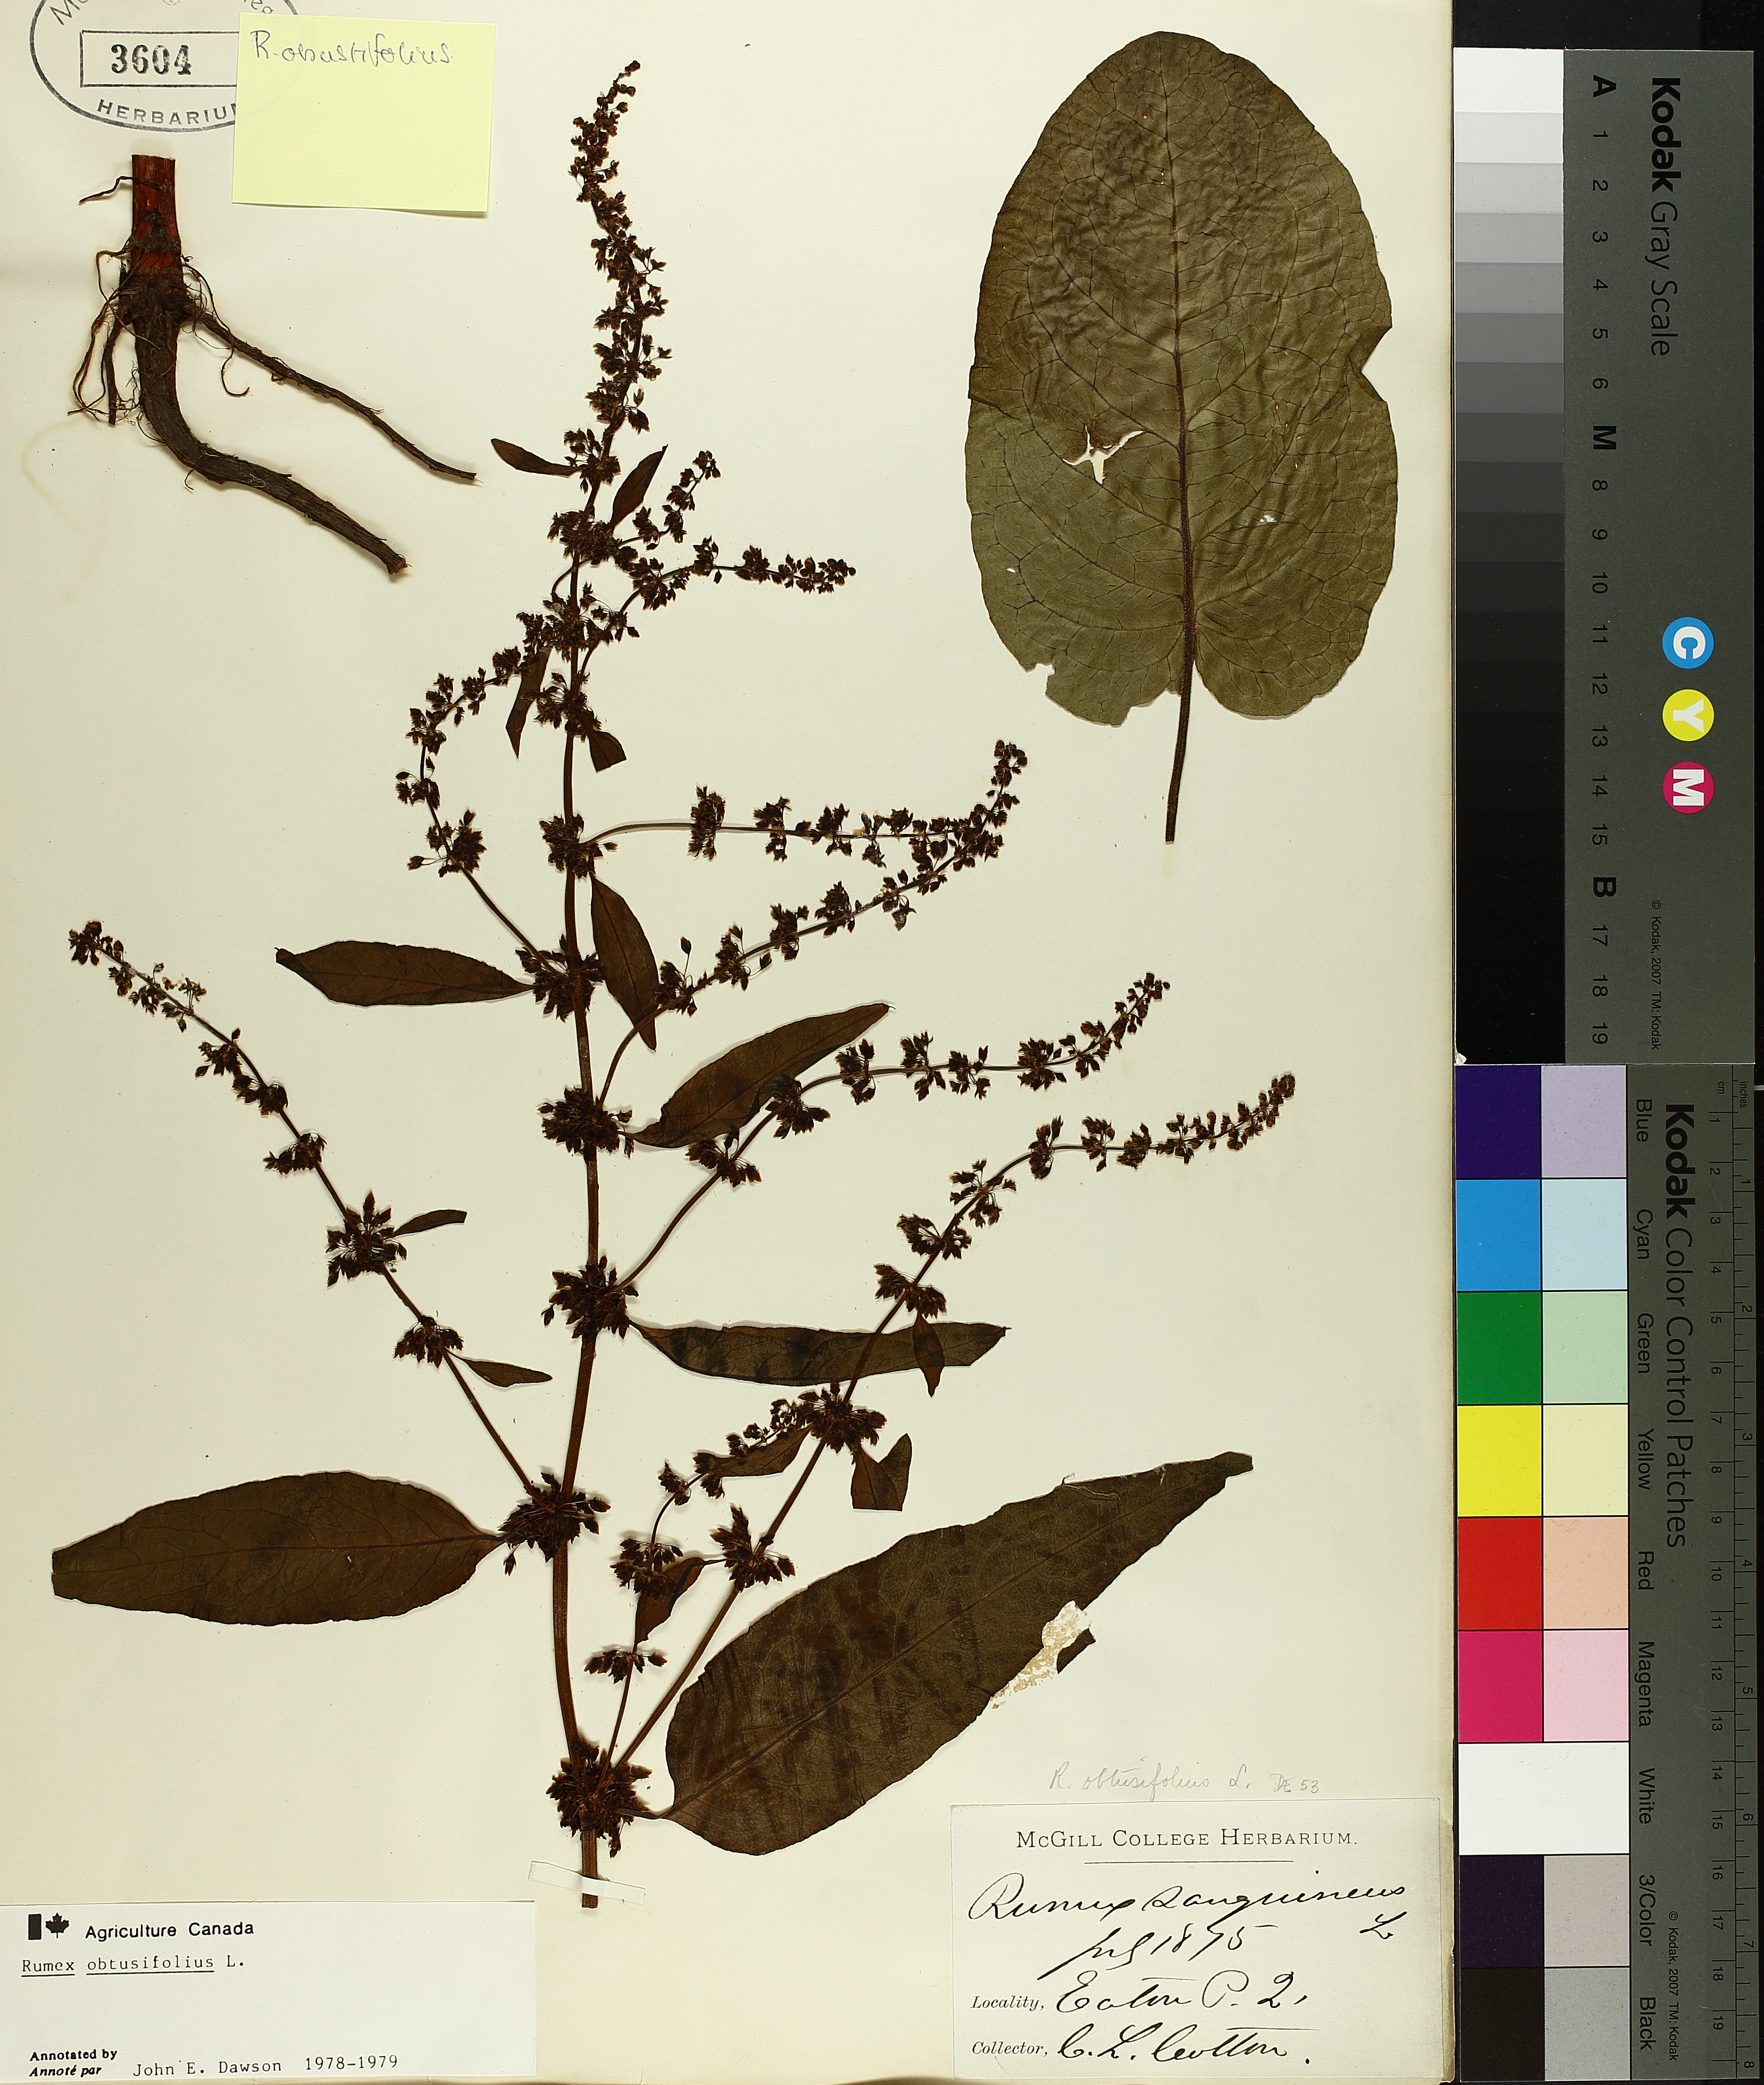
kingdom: Plantae
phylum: Tracheophyta
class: Magnoliopsida
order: Caryophyllales
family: Polygonaceae
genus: Rumex
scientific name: Rumex obtusifolius
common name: Bitter dock
